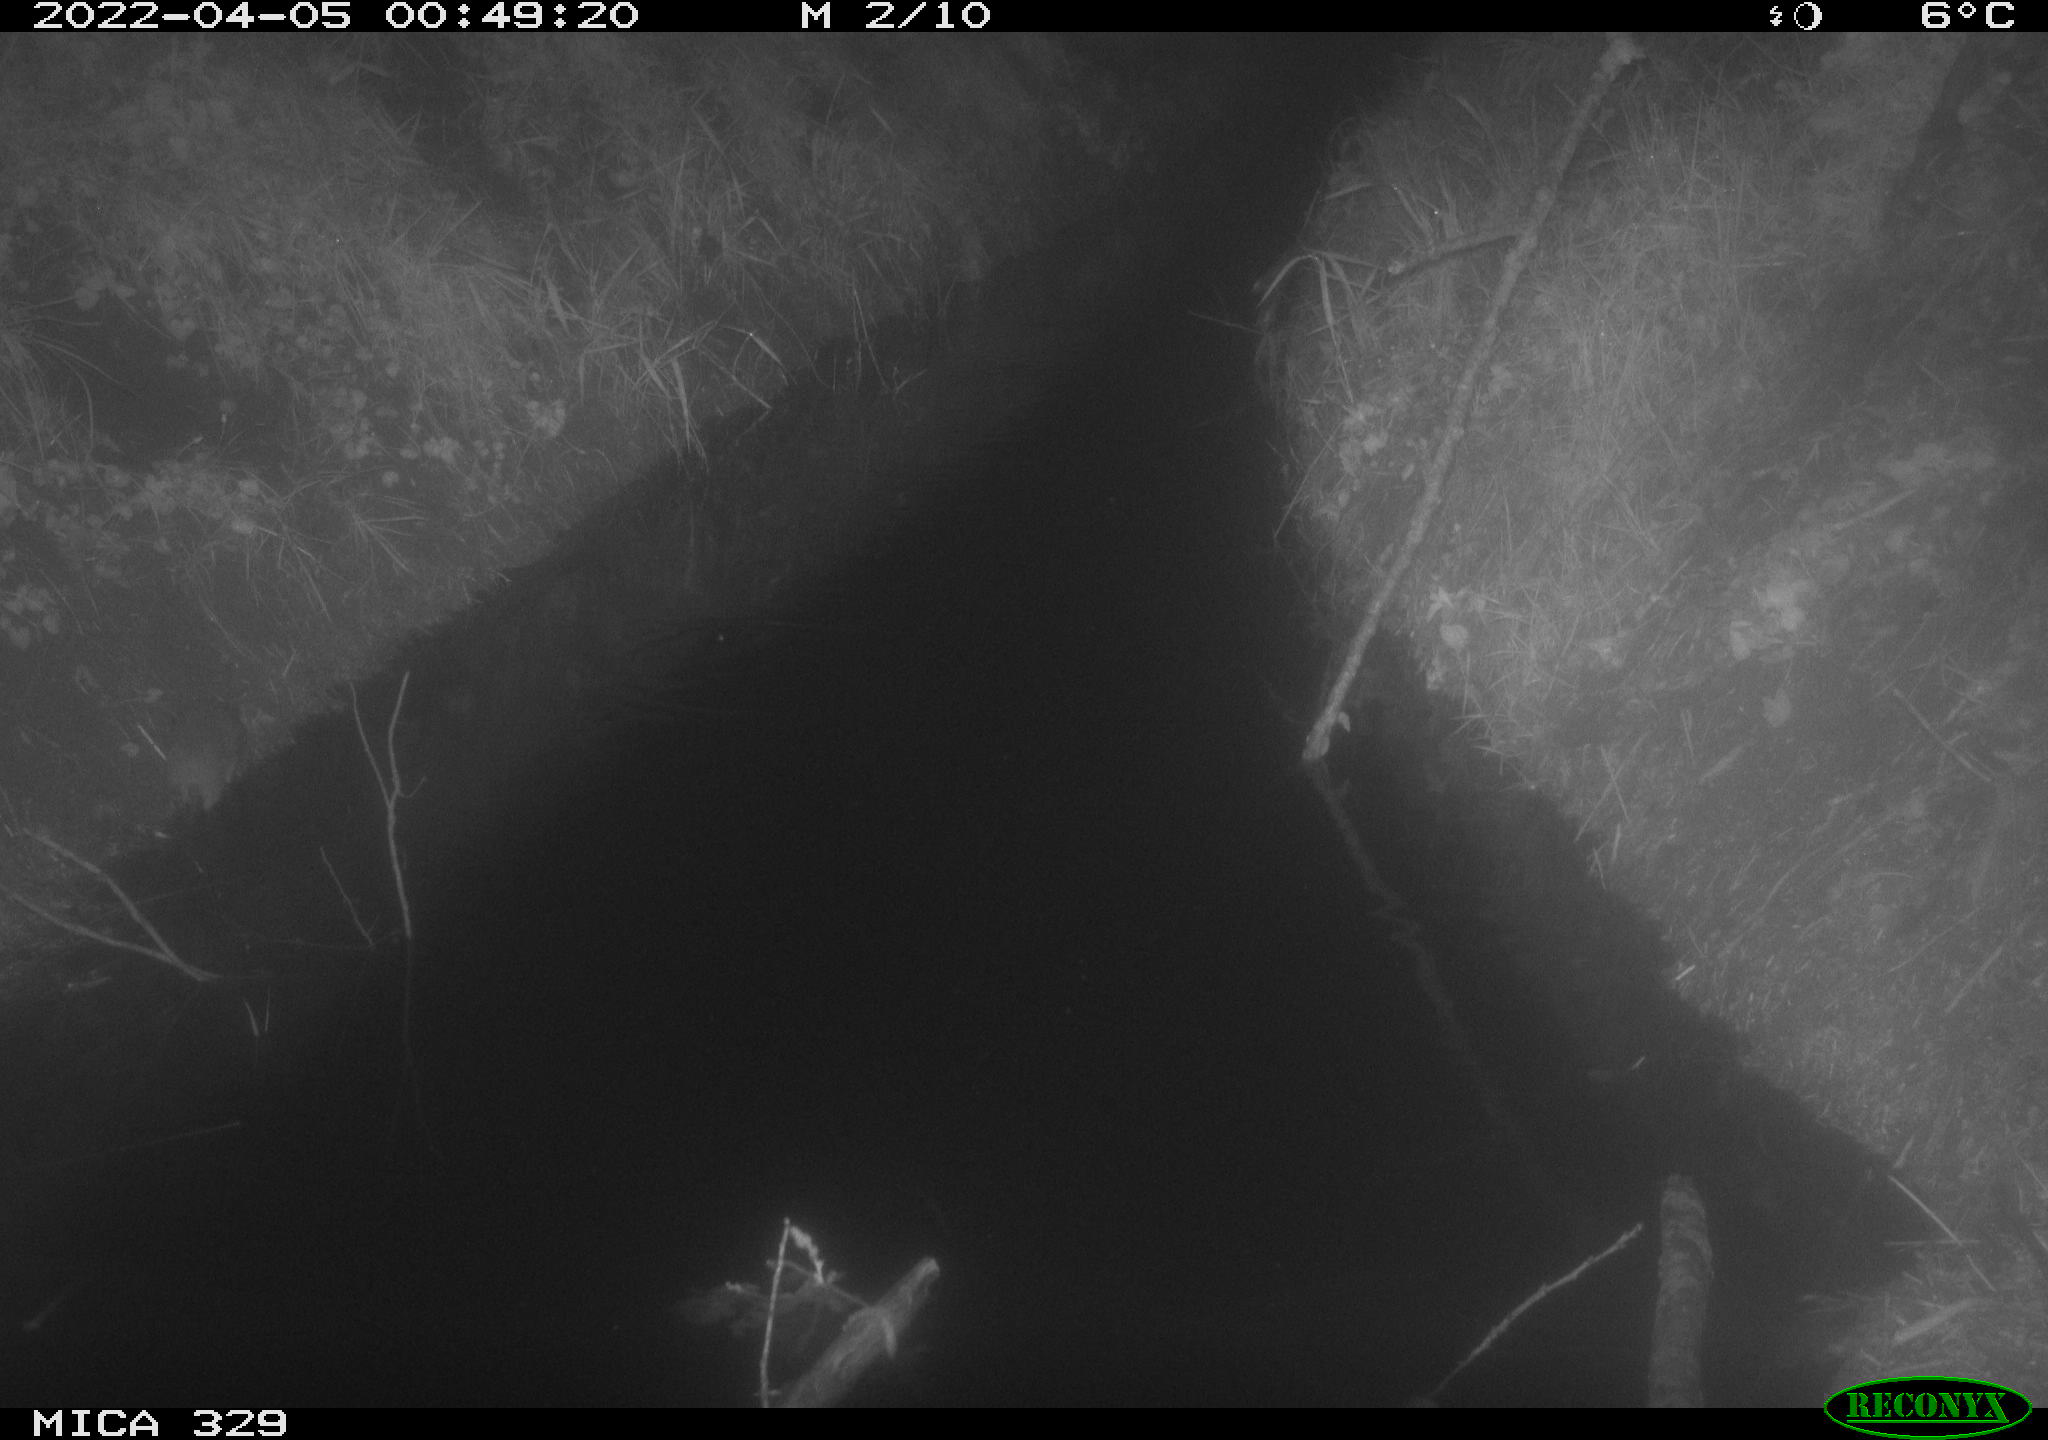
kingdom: Animalia
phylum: Chordata
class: Mammalia
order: Rodentia
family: Muridae
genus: Rattus
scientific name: Rattus norvegicus
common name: Brown rat
